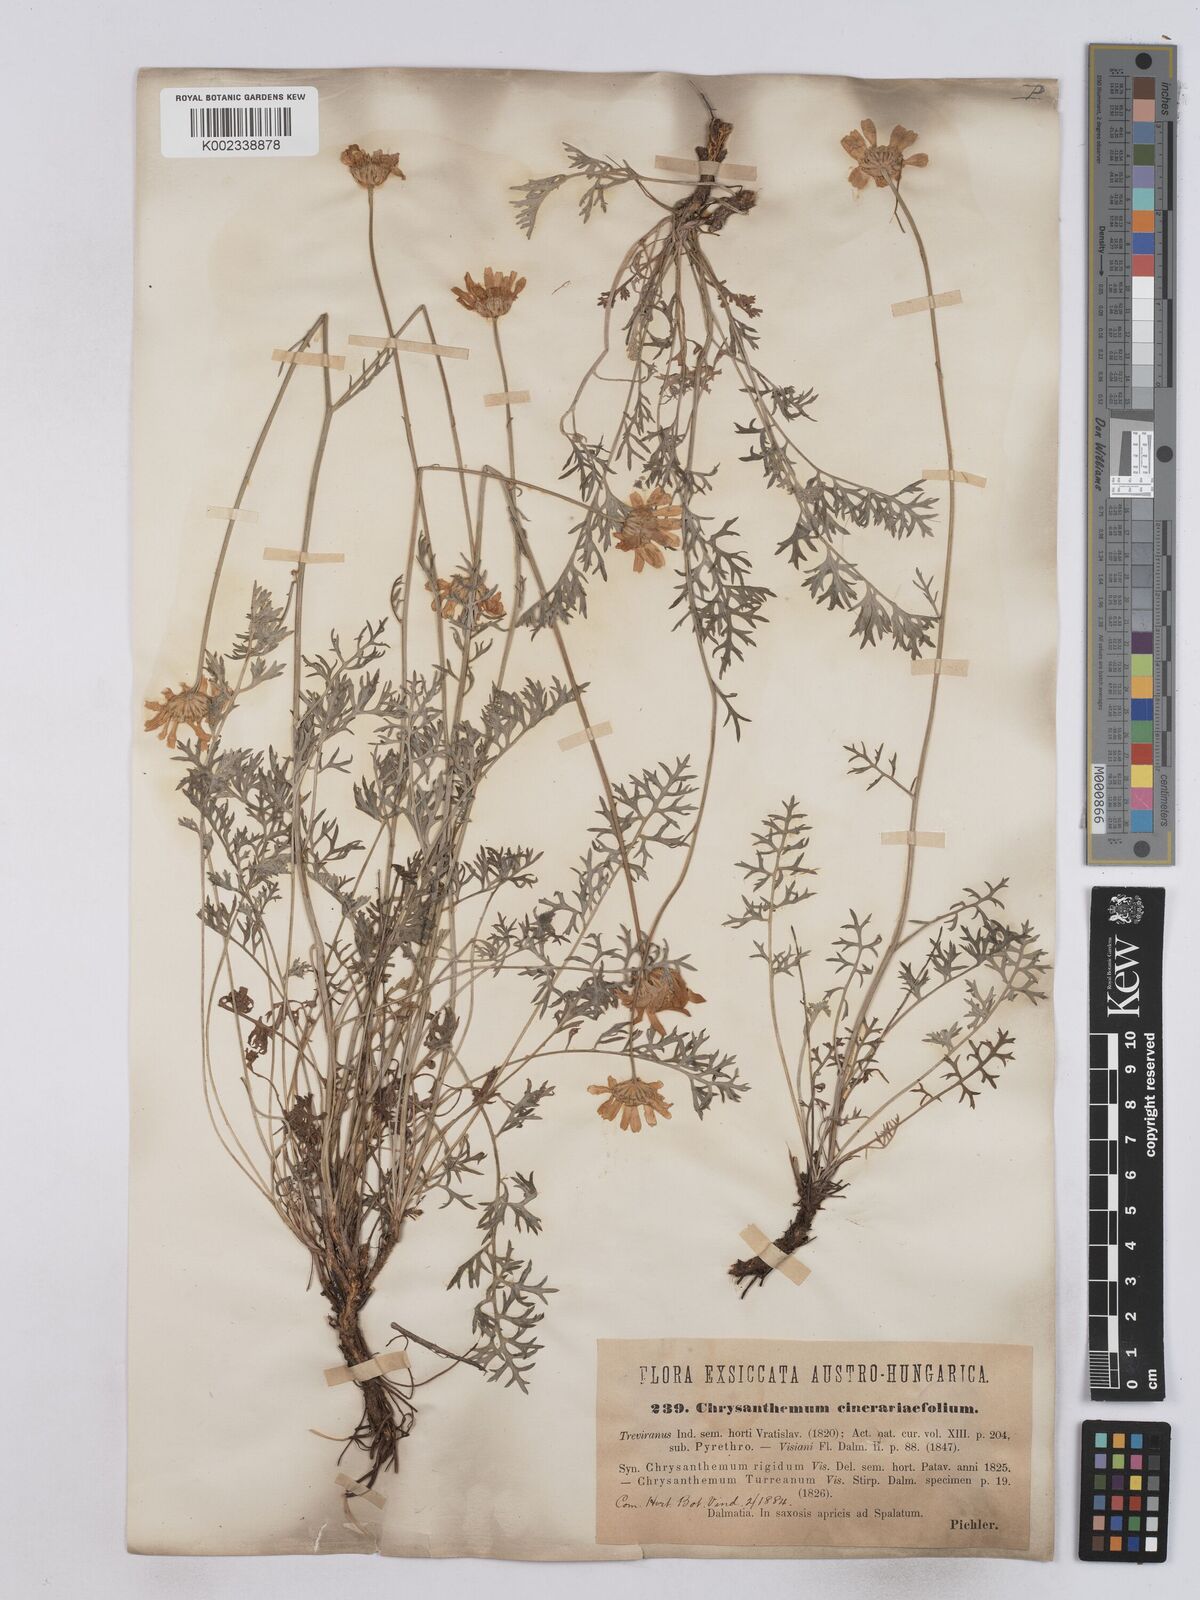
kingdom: Plantae
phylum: Tracheophyta
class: Magnoliopsida
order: Asterales
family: Asteraceae
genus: Tanacetum
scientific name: Tanacetum cinerariifolium
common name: Dalmatian pyrethrum
